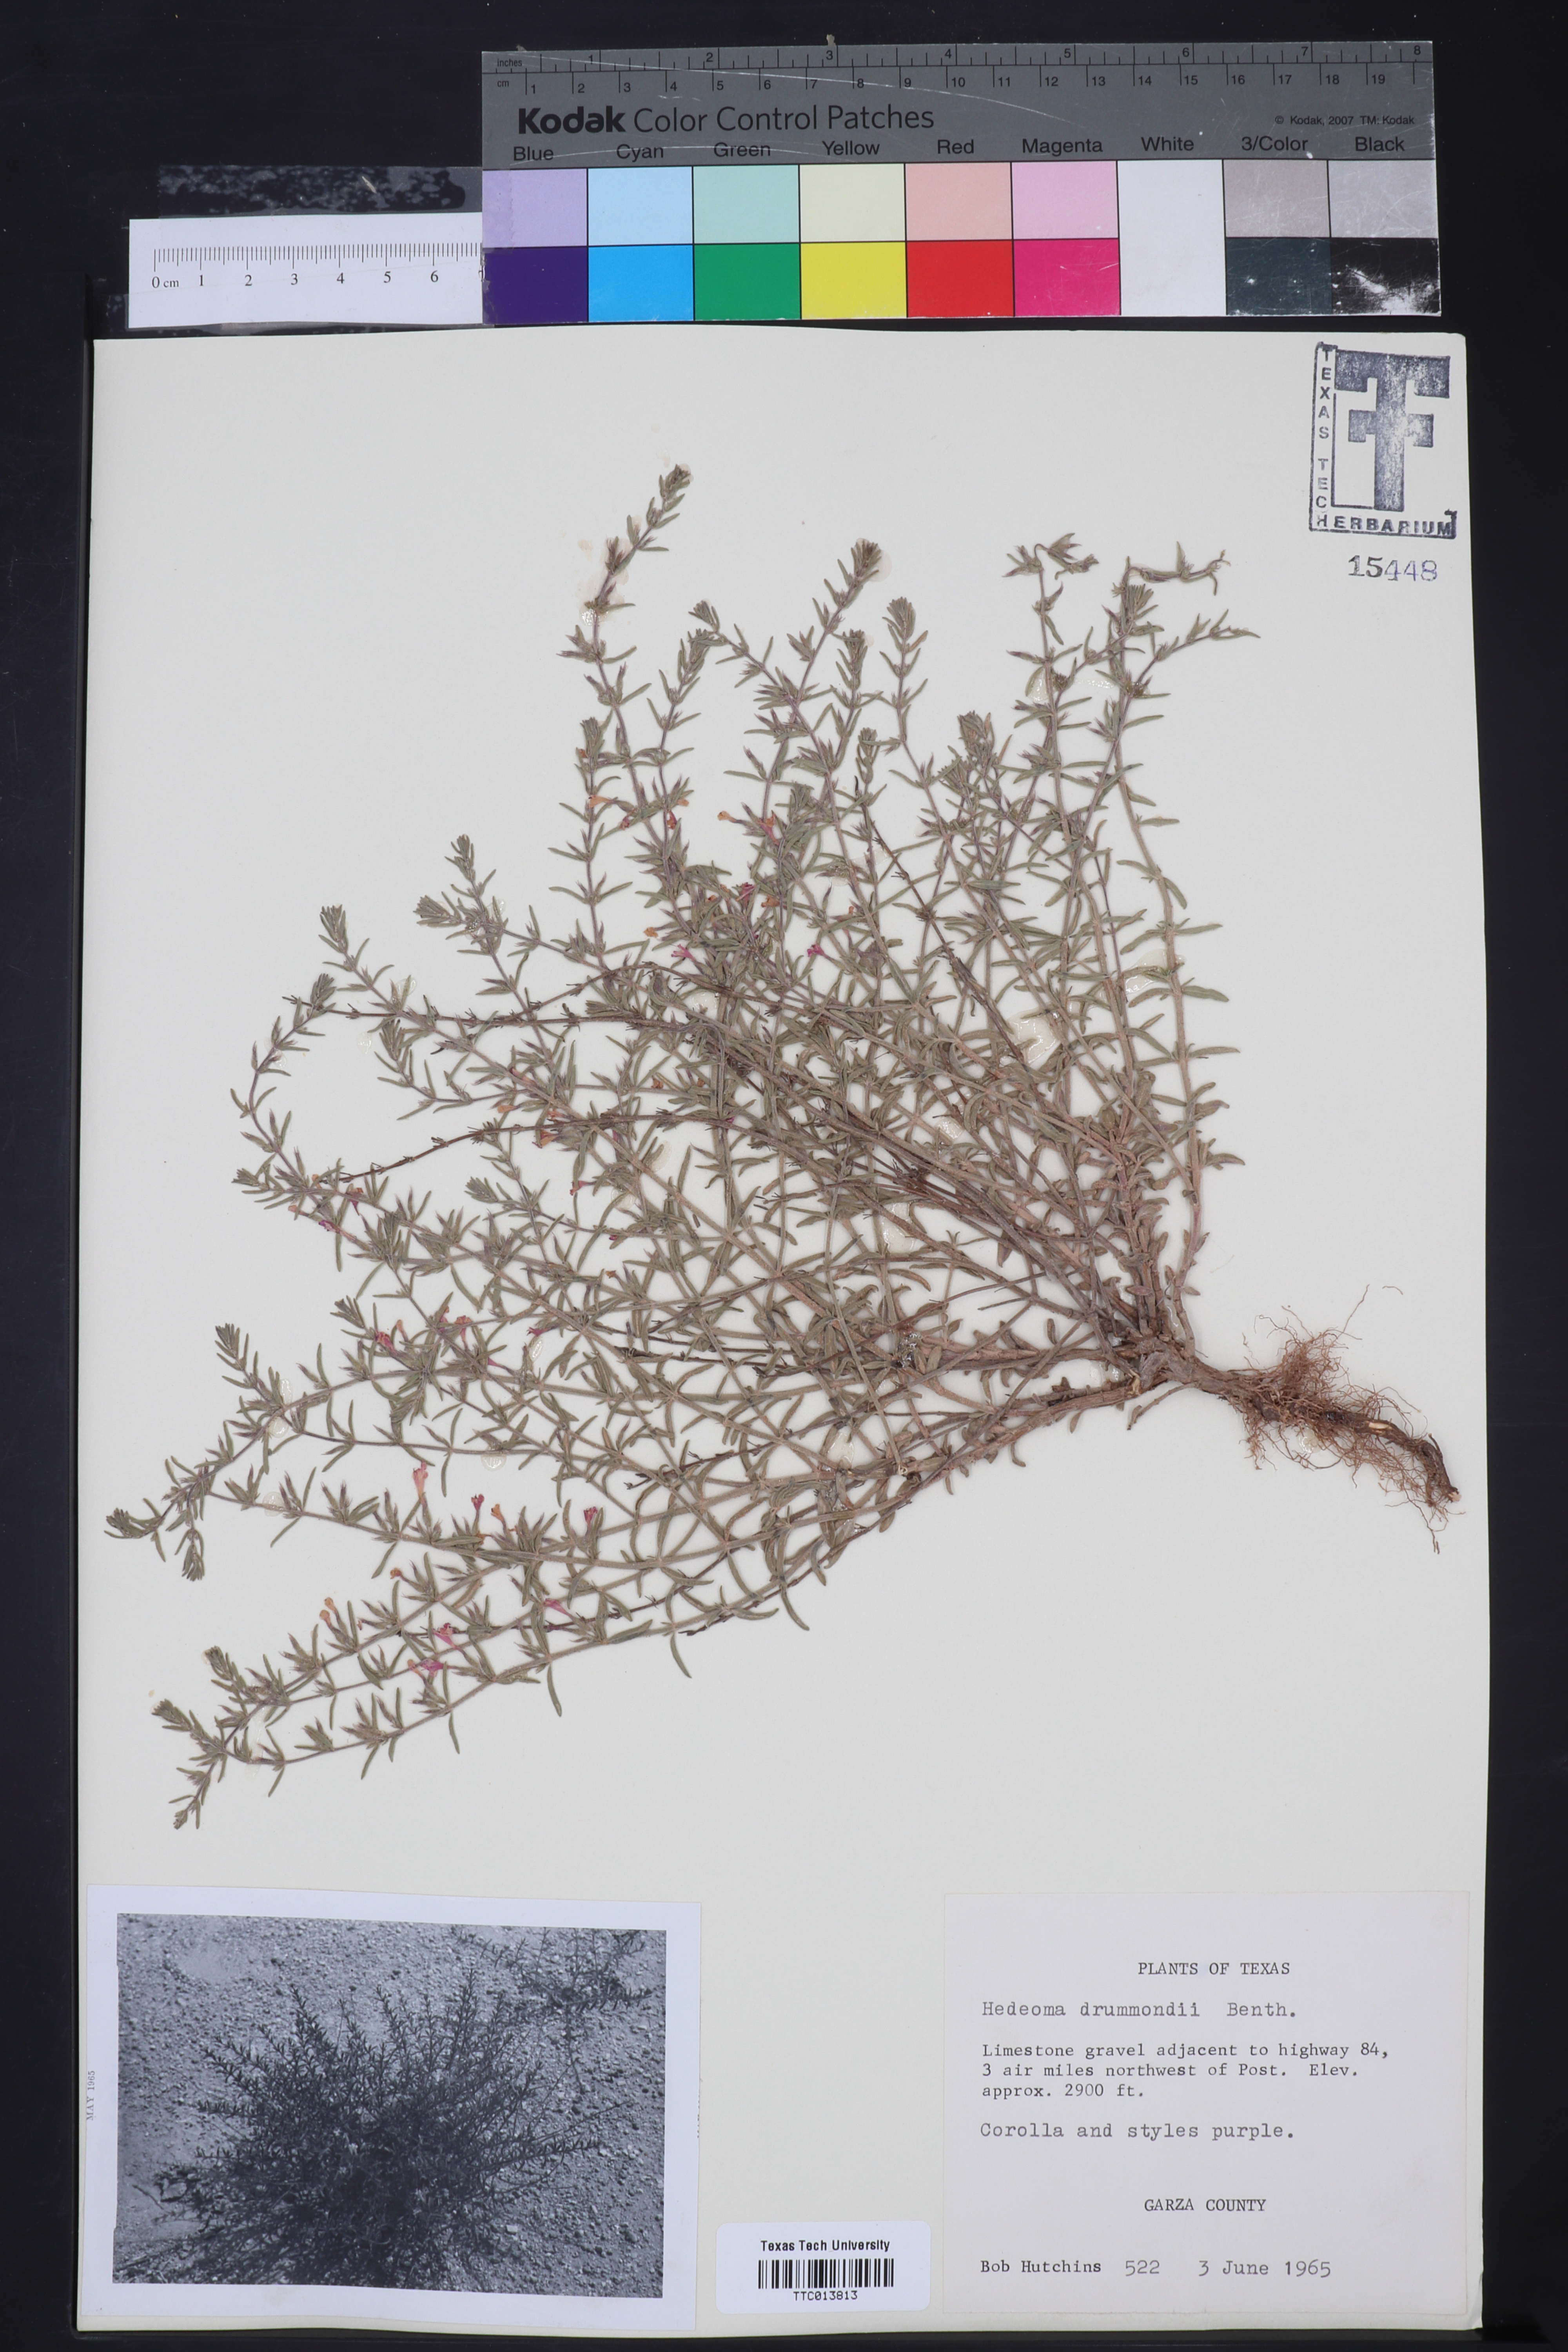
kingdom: Plantae
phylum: Tracheophyta
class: Magnoliopsida
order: Lamiales
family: Lamiaceae
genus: Hedeoma
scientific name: Hedeoma drummondii
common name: New mexico pennyroyal
